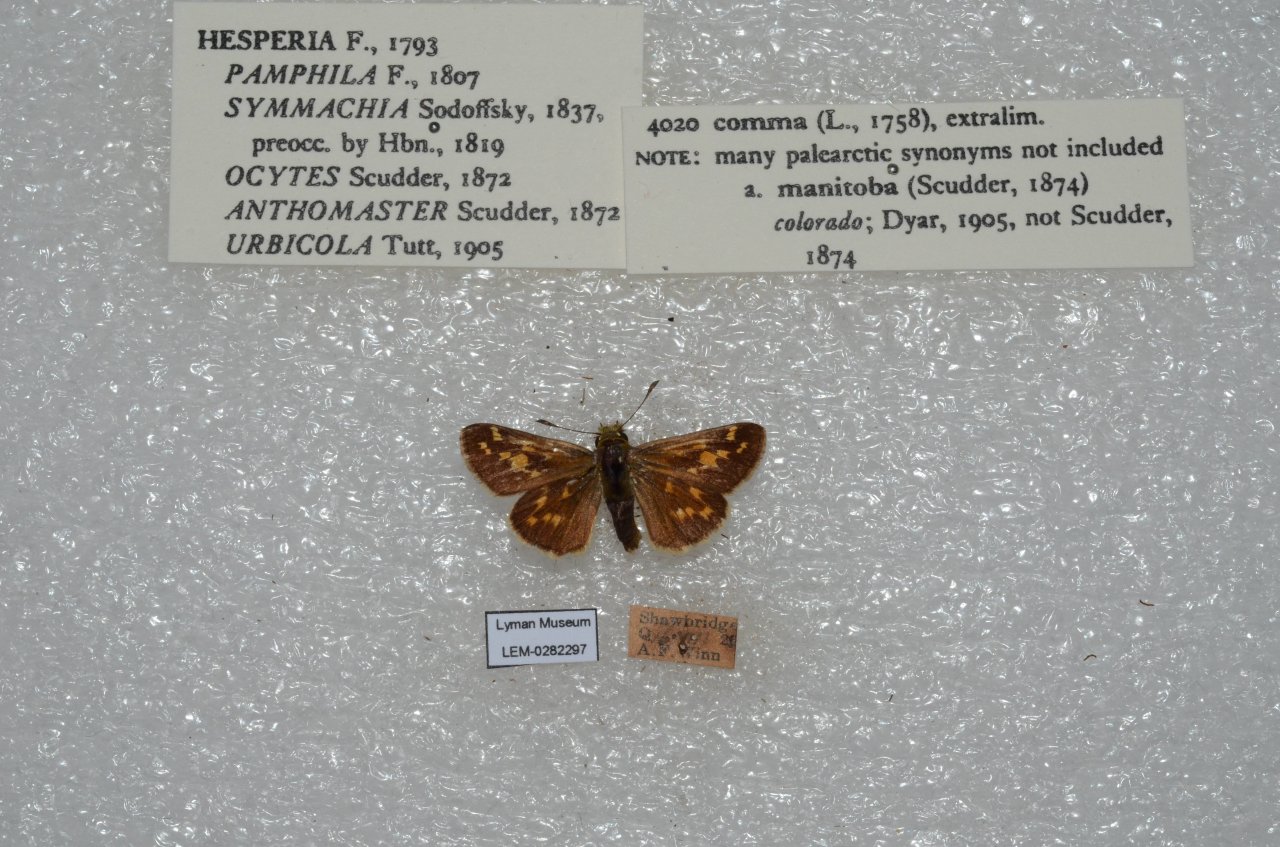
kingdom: Animalia
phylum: Arthropoda
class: Insecta
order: Lepidoptera
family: Hesperiidae
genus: Hesperia
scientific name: Hesperia comma
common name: Common Branded Skipper
